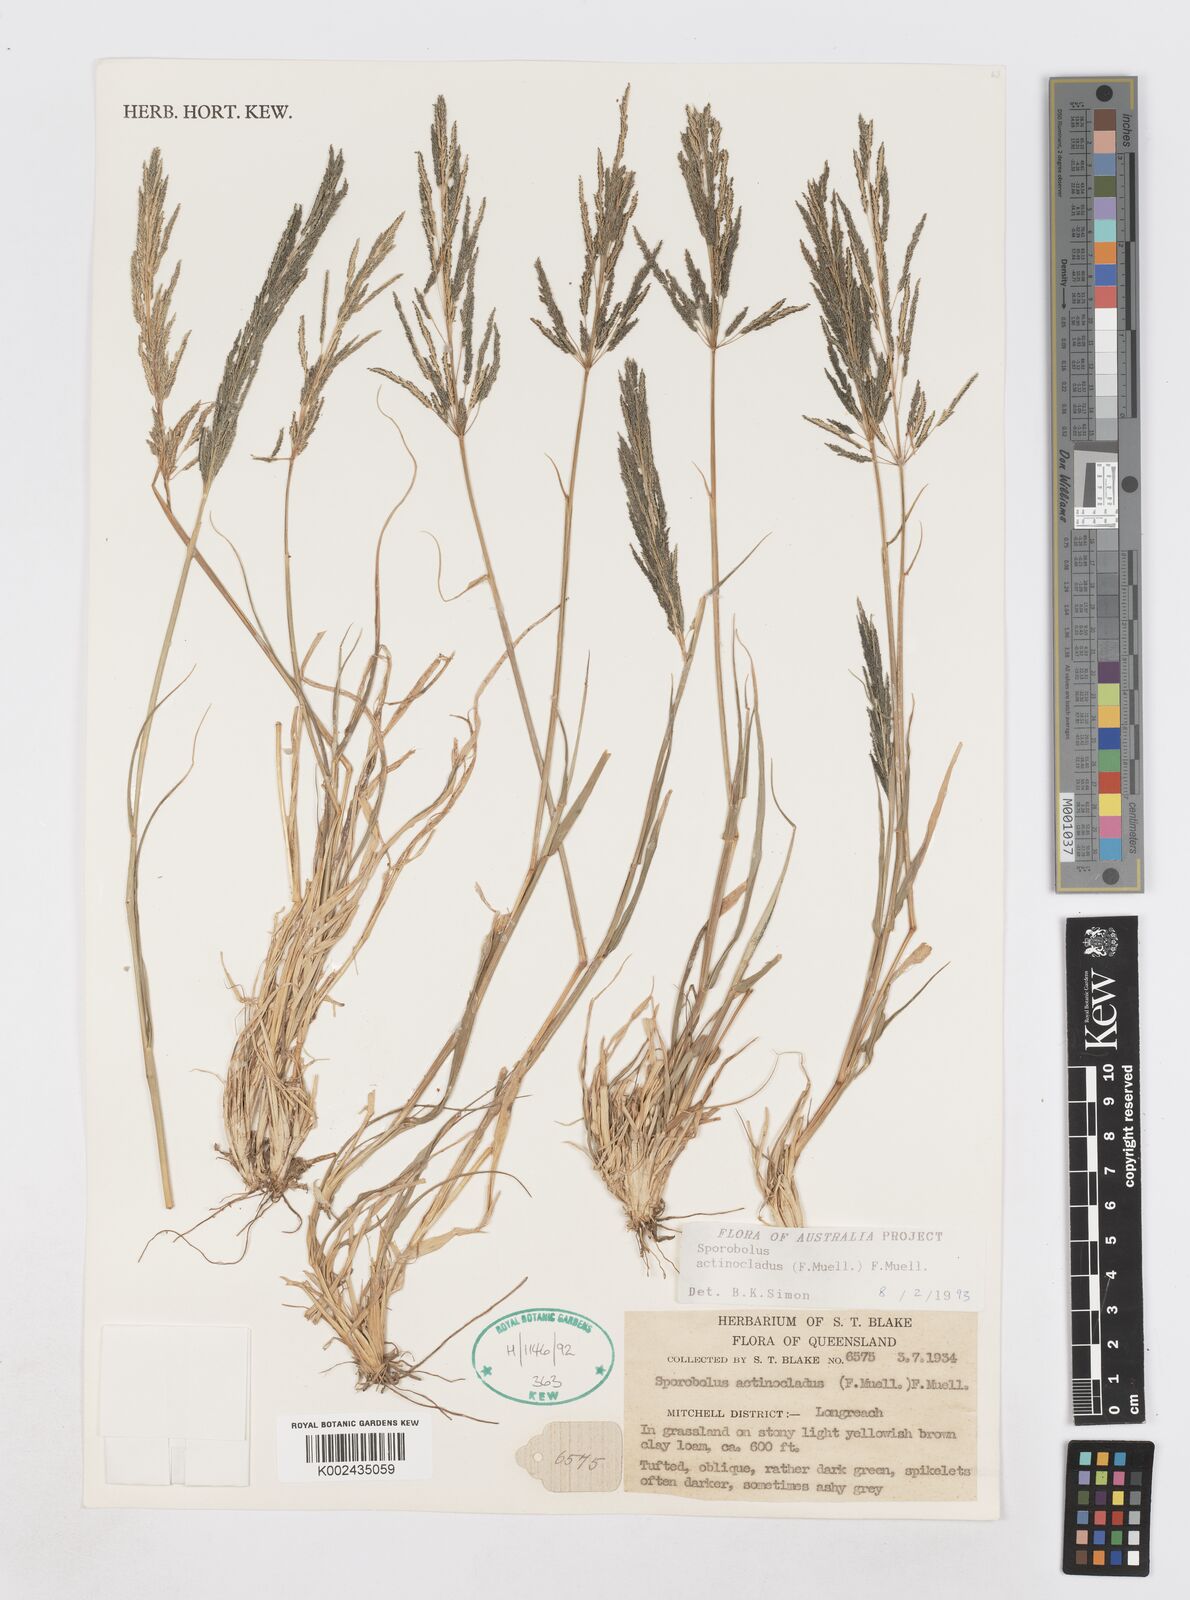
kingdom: Plantae
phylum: Tracheophyta
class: Liliopsida
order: Poales
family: Poaceae
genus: Sporobolus
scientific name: Sporobolus actinocladus
